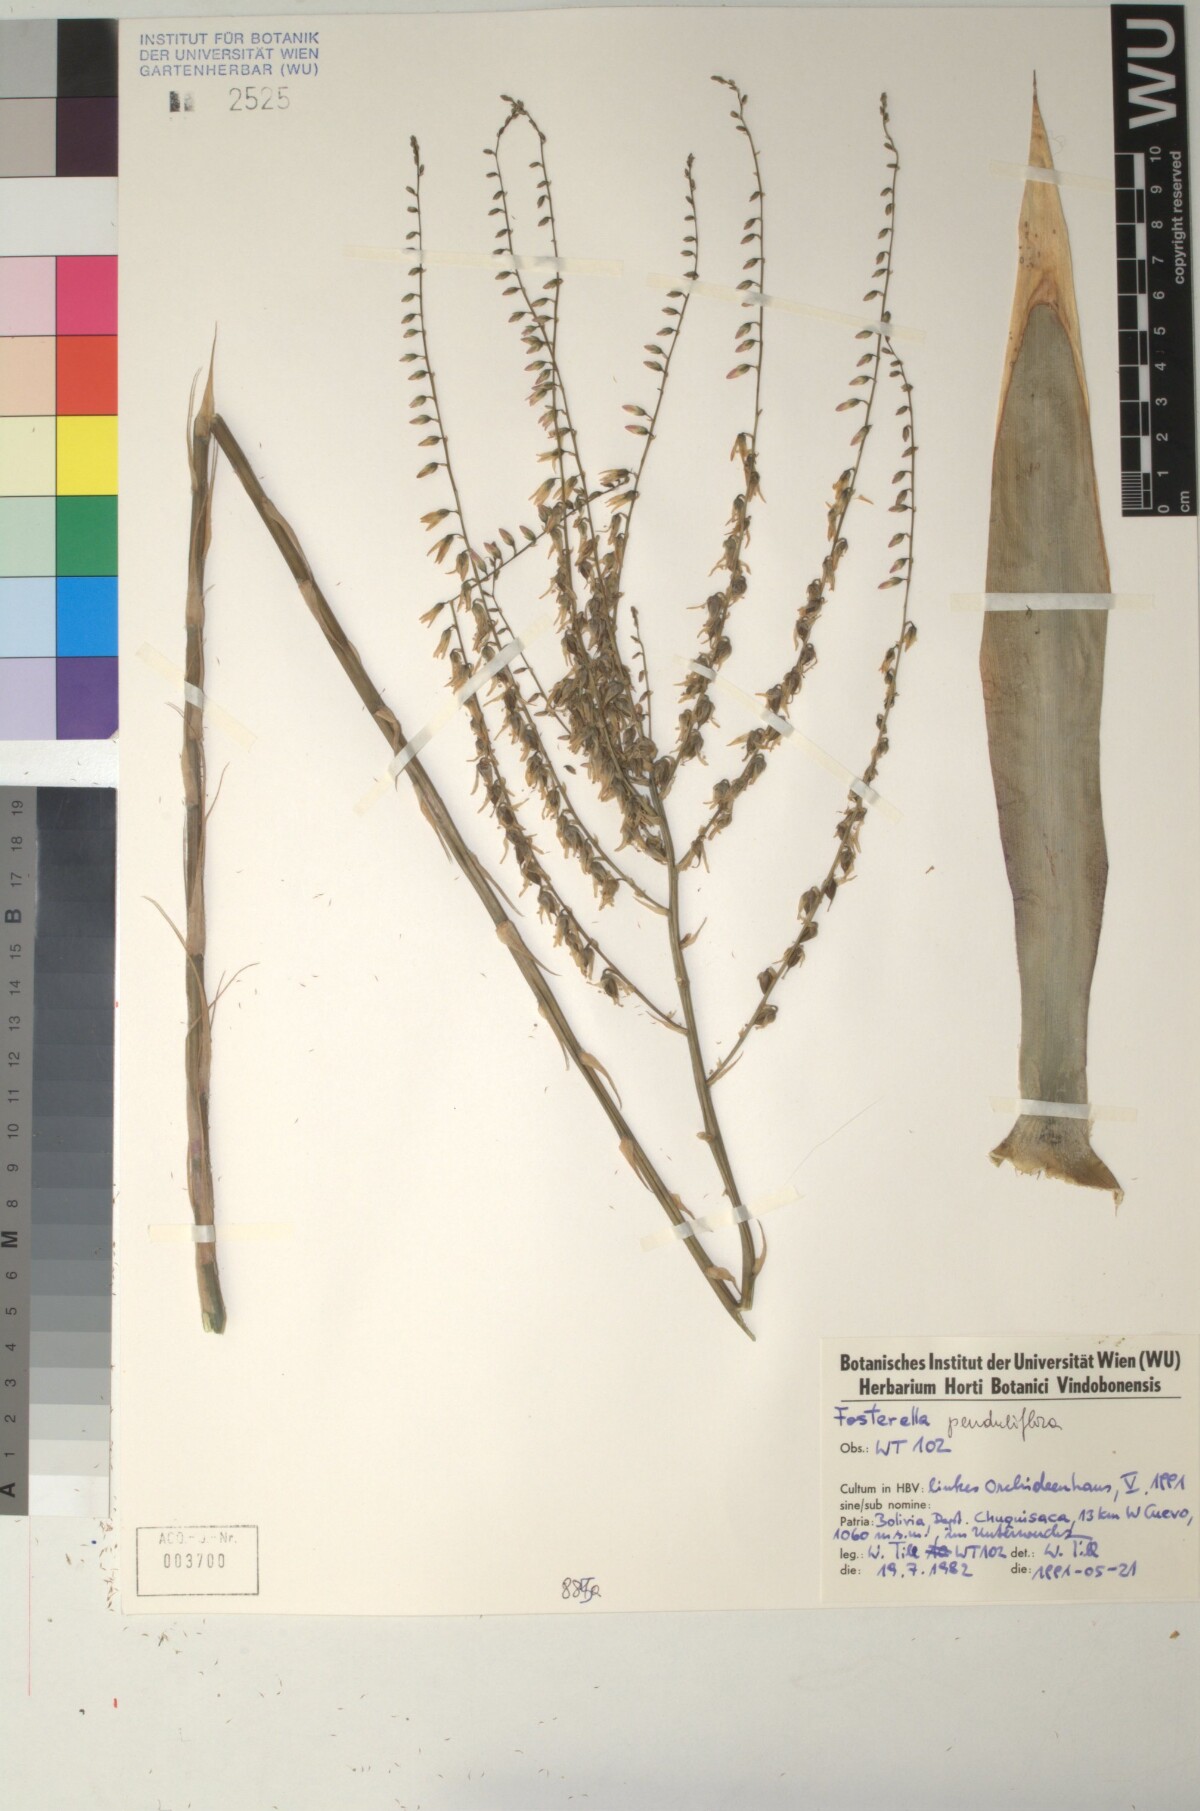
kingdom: Plantae
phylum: Tracheophyta
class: Liliopsida
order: Poales
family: Bromeliaceae
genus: Fosterella
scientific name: Fosterella penduliflora
